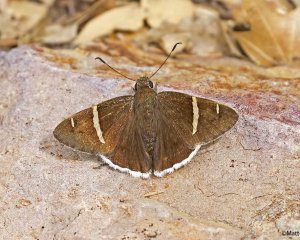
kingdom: Animalia
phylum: Arthropoda
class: Insecta
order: Lepidoptera
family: Hesperiidae
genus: Autochton
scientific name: Autochton cincta
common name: Chisos Banded-Skipper
